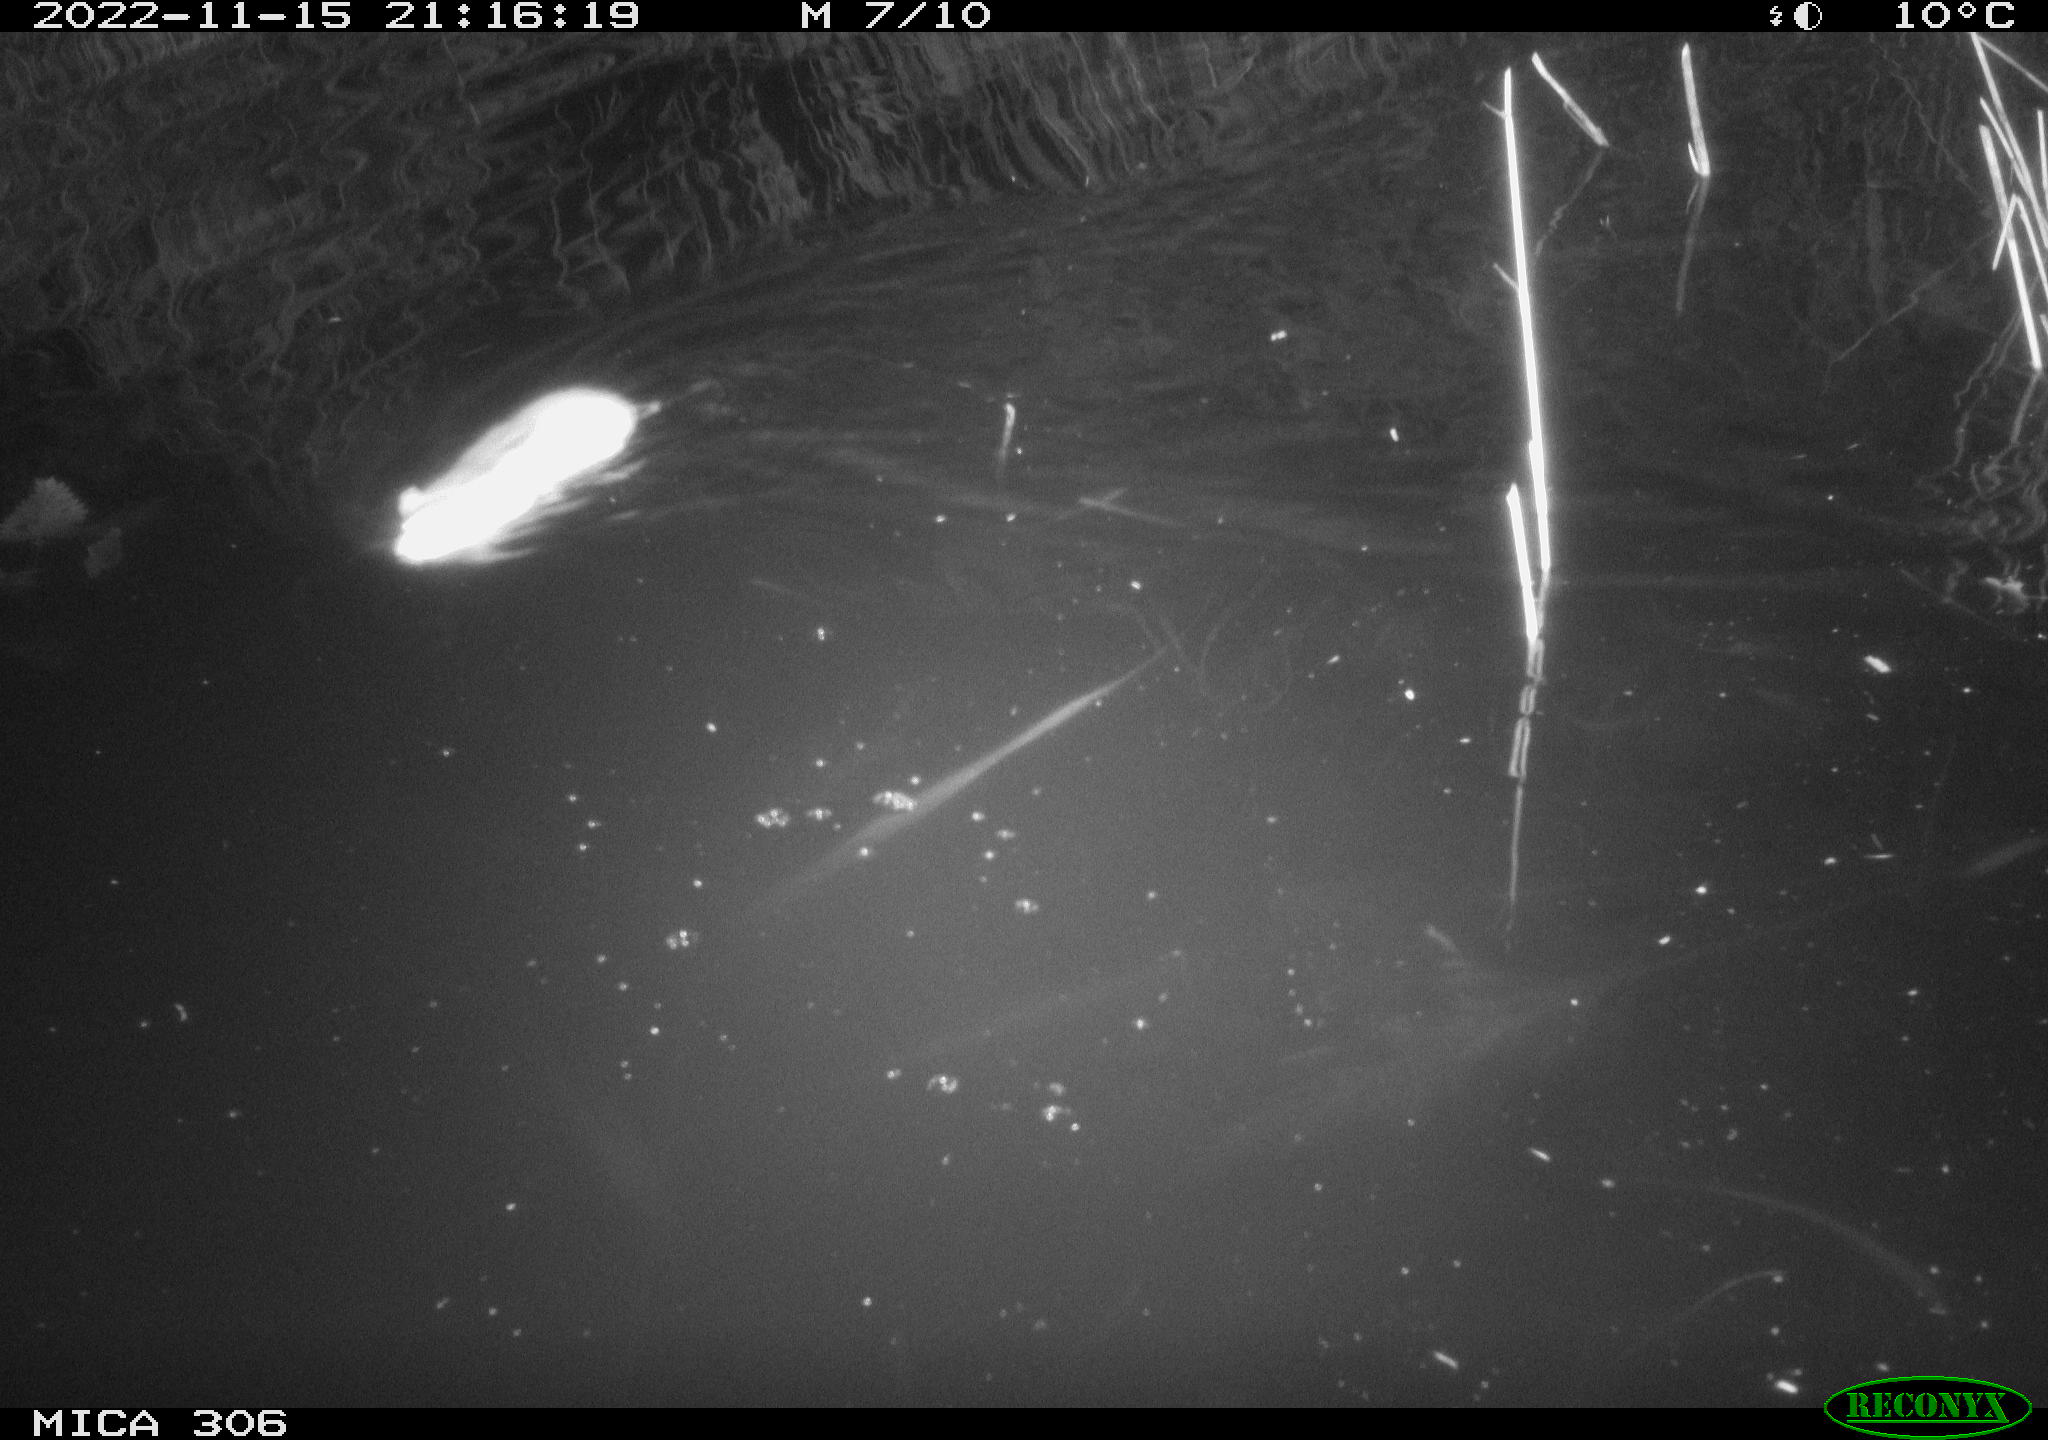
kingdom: Animalia
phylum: Chordata
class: Mammalia
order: Rodentia
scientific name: Rodentia
